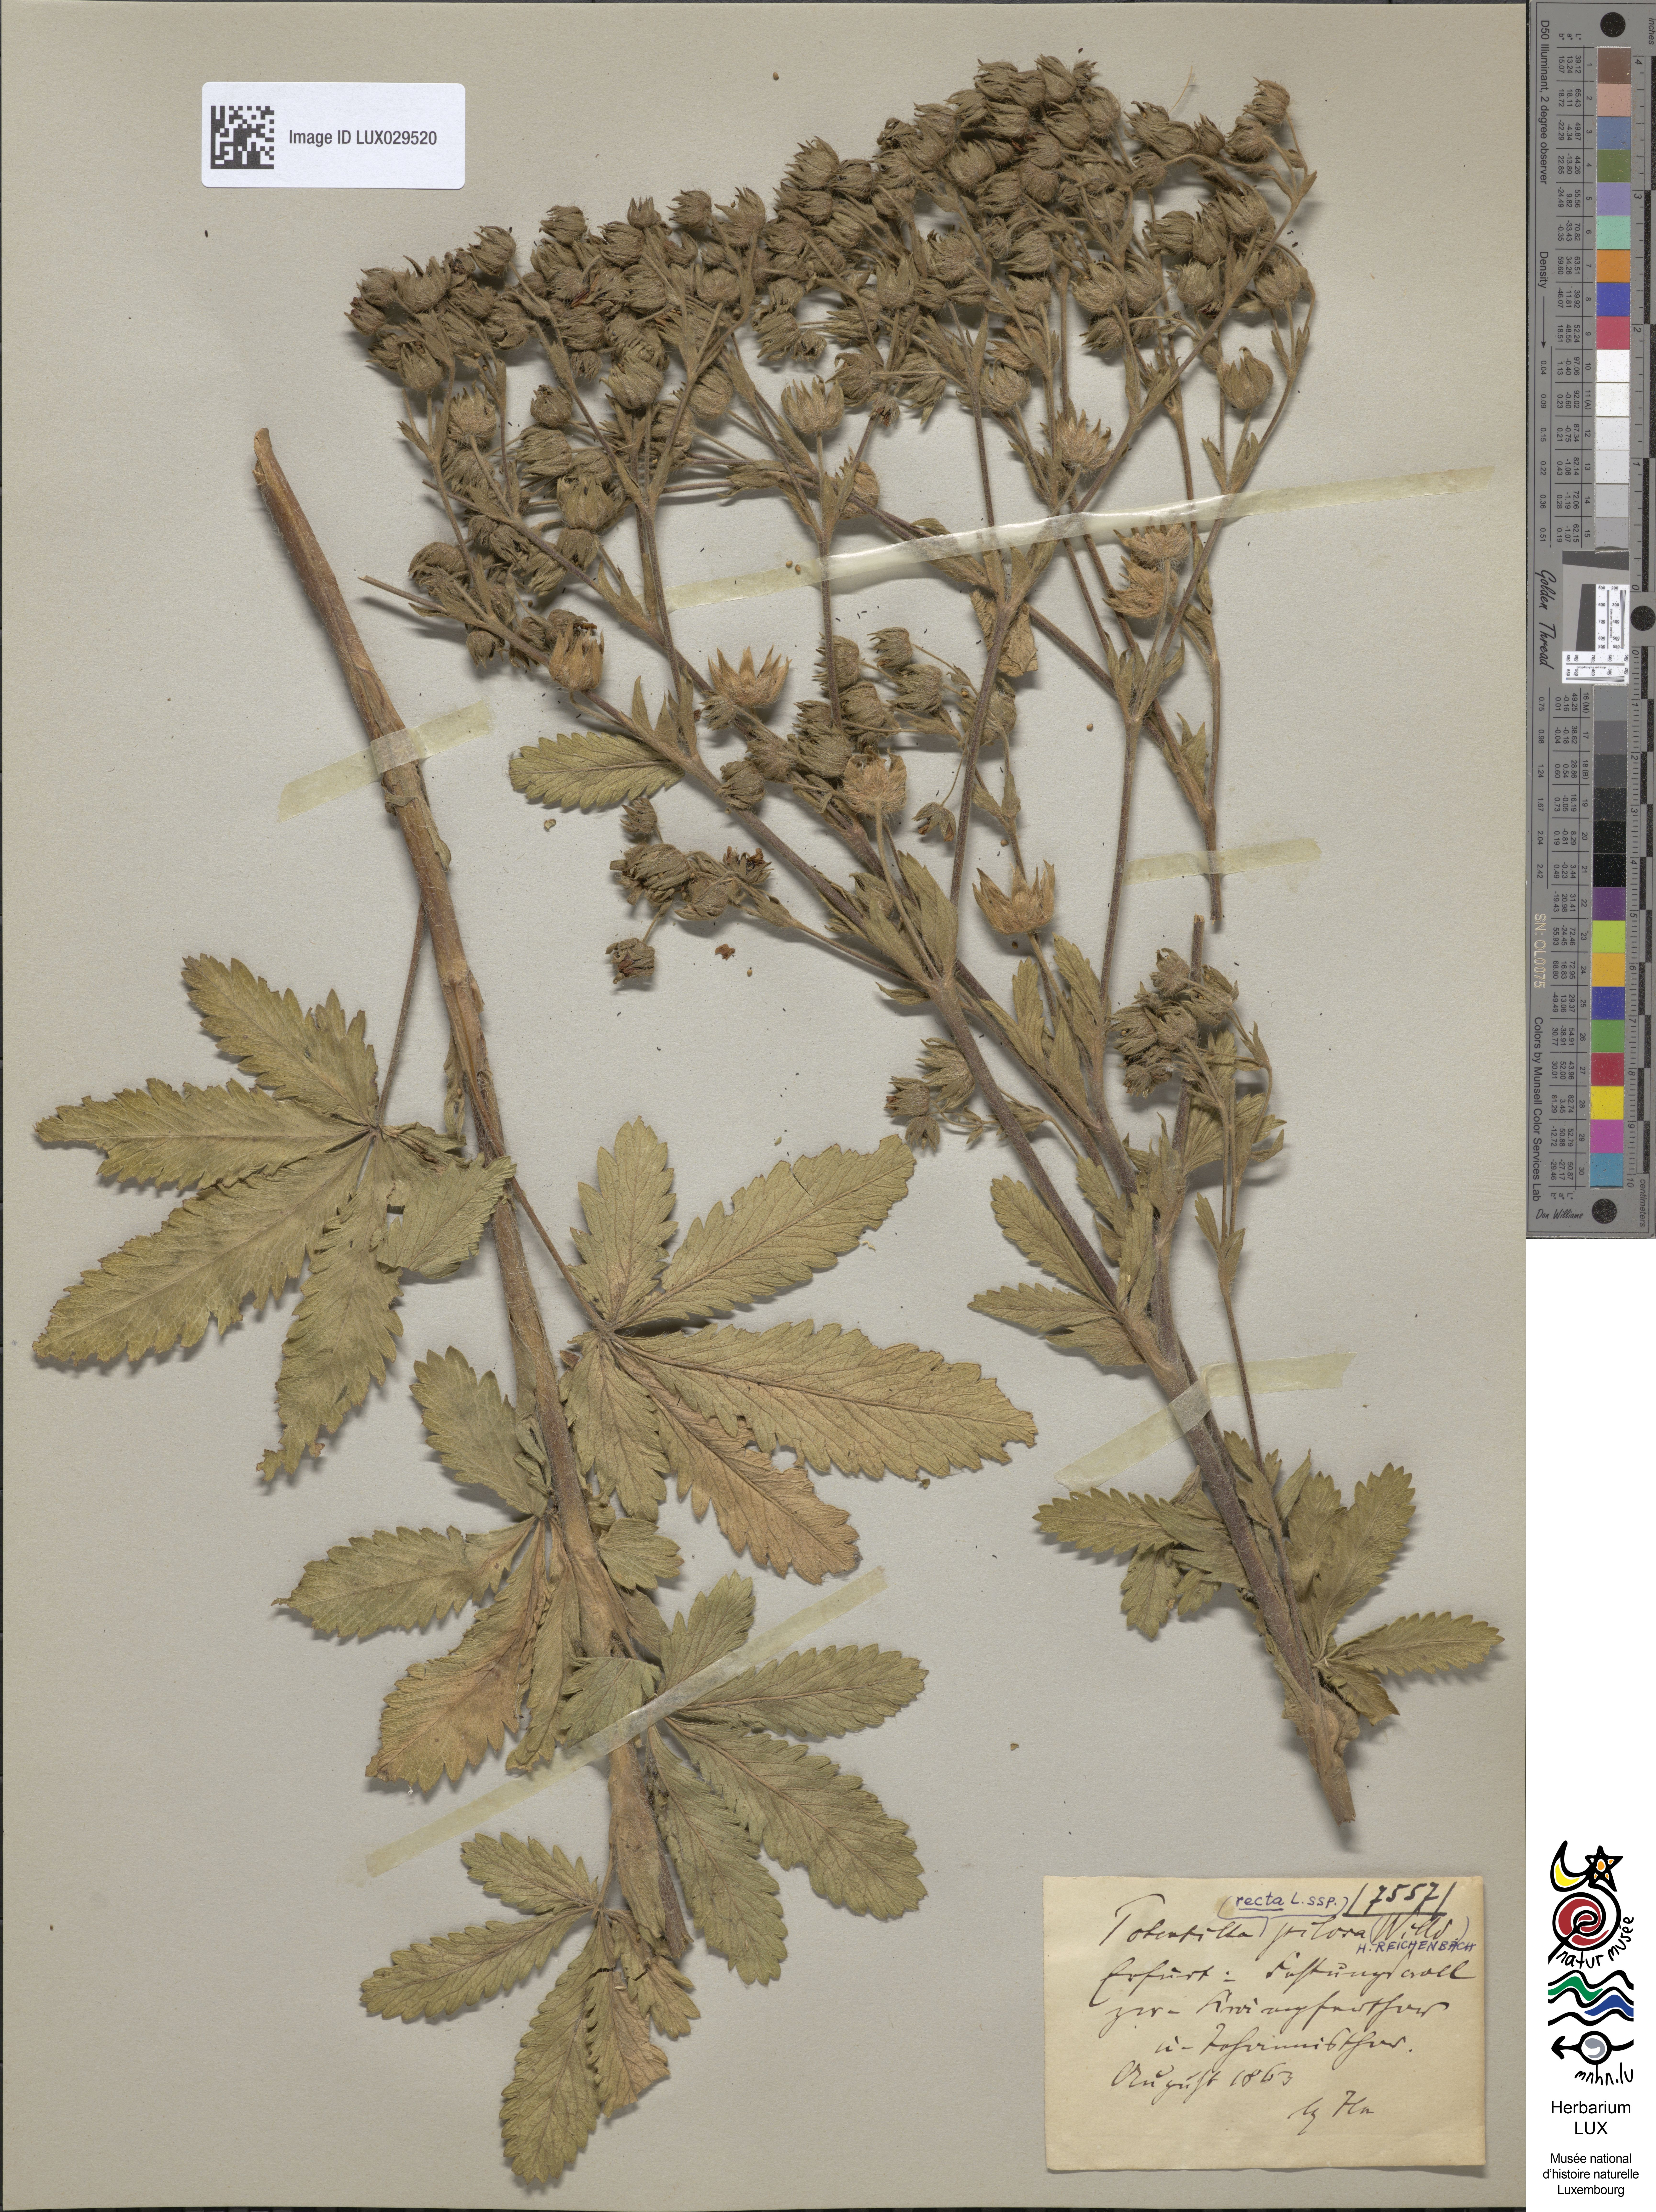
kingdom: Plantae
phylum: Tracheophyta
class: Magnoliopsida
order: Rosales
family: Rosaceae
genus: Potentilla
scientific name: Potentilla recta
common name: Sulphur cinquefoil
